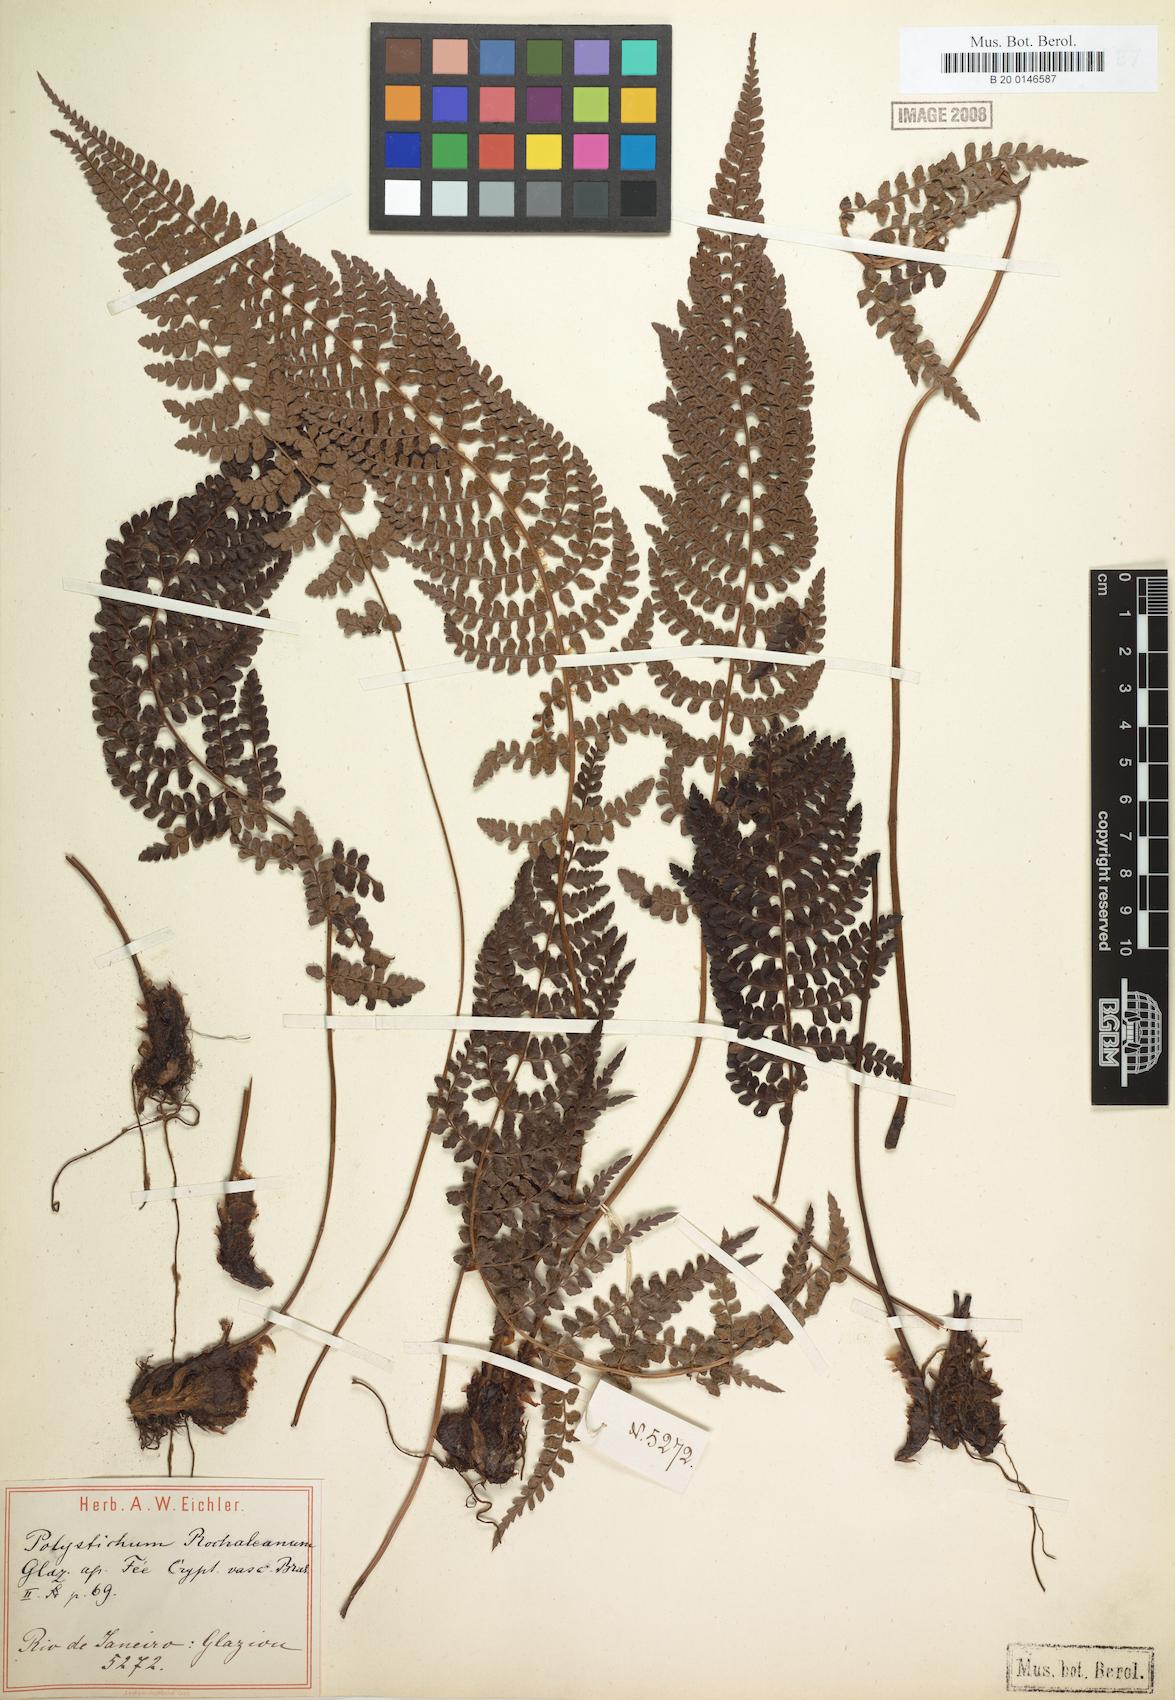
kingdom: Plantae
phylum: Tracheophyta
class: Polypodiopsida
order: Polypodiales
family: Dryopteridaceae
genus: Polystichum
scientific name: Polystichum rochaleanum
